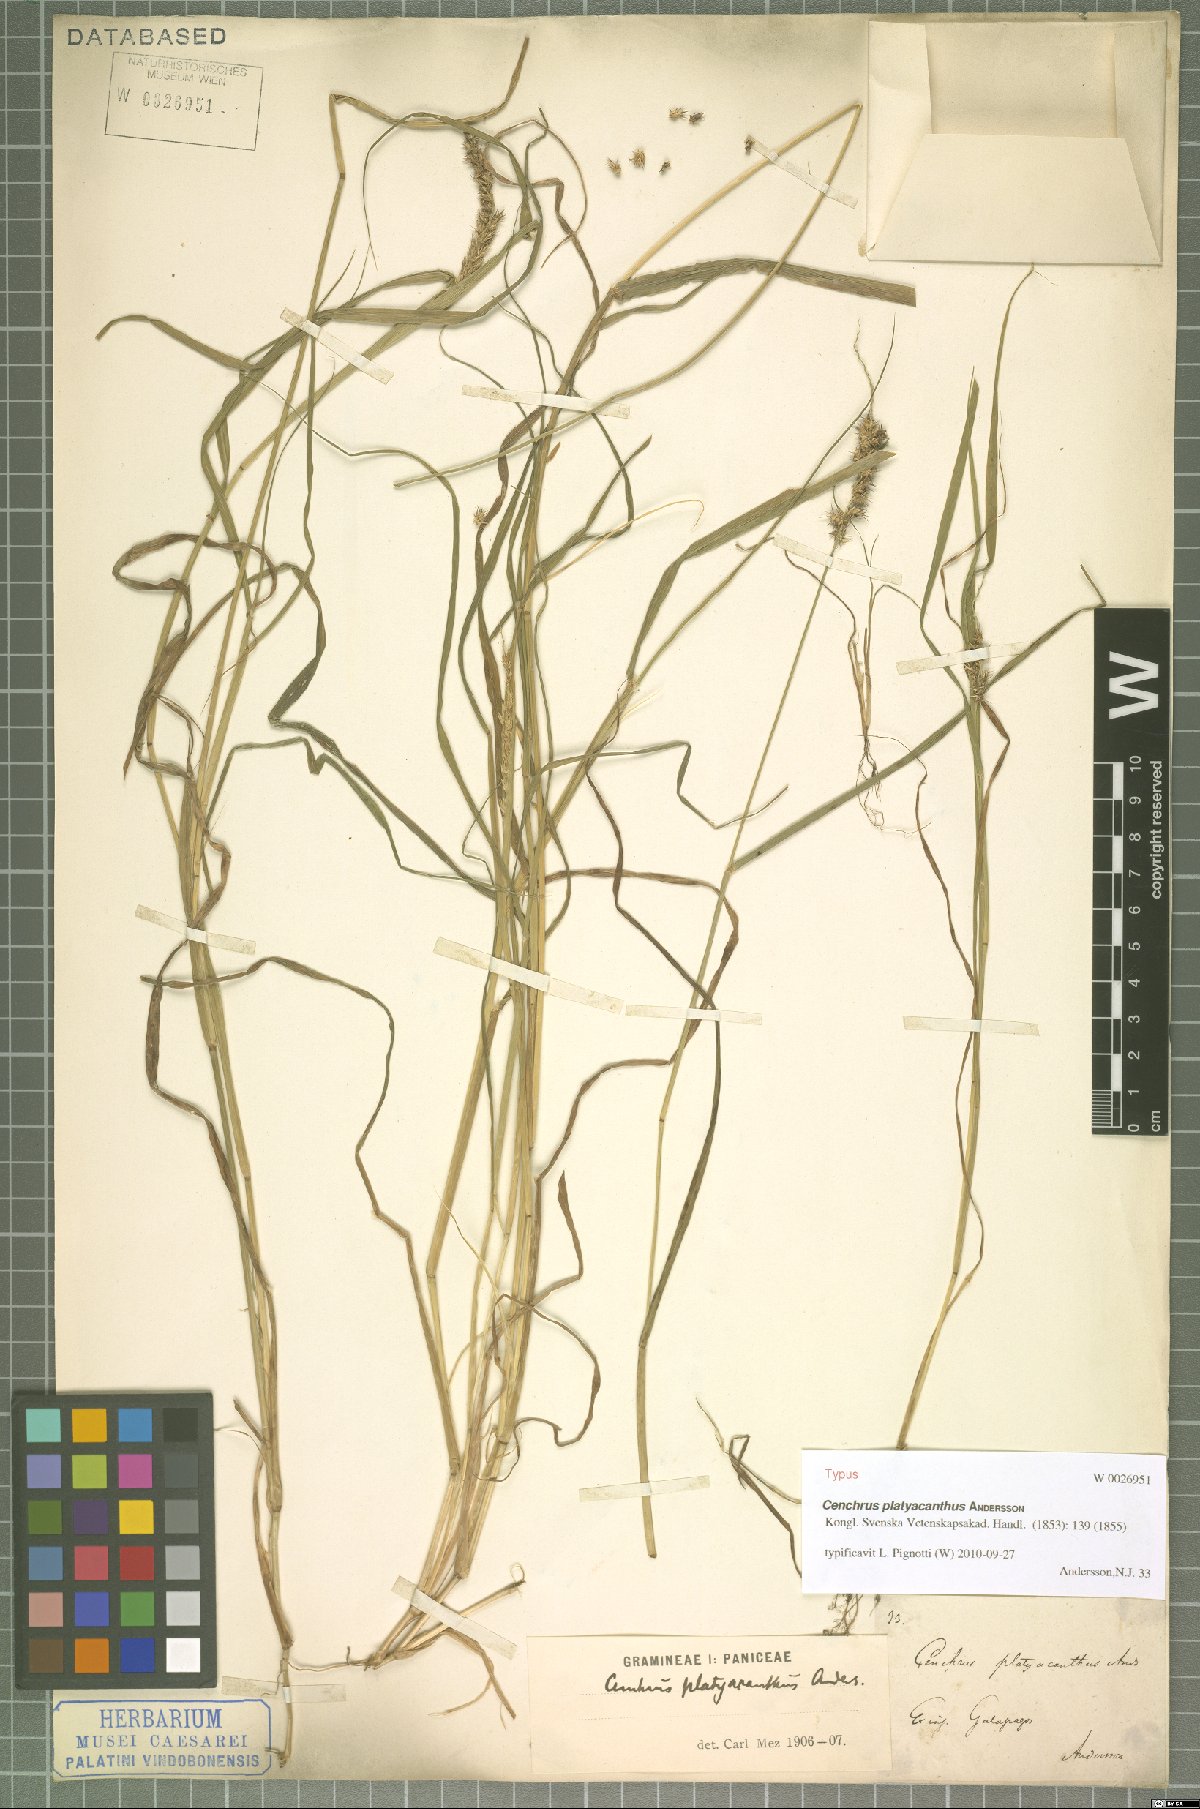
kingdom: Plantae
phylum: Tracheophyta
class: Liliopsida
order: Poales
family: Poaceae
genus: Cenchrus
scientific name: Cenchrus platyacanthus
